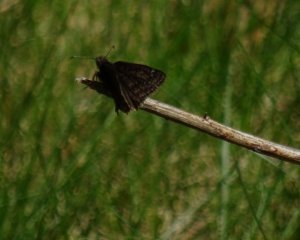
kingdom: Animalia
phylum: Arthropoda
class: Insecta
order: Lepidoptera
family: Hesperiidae
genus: Erynnis
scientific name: Erynnis icelus
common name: Dreamy Duskywing
